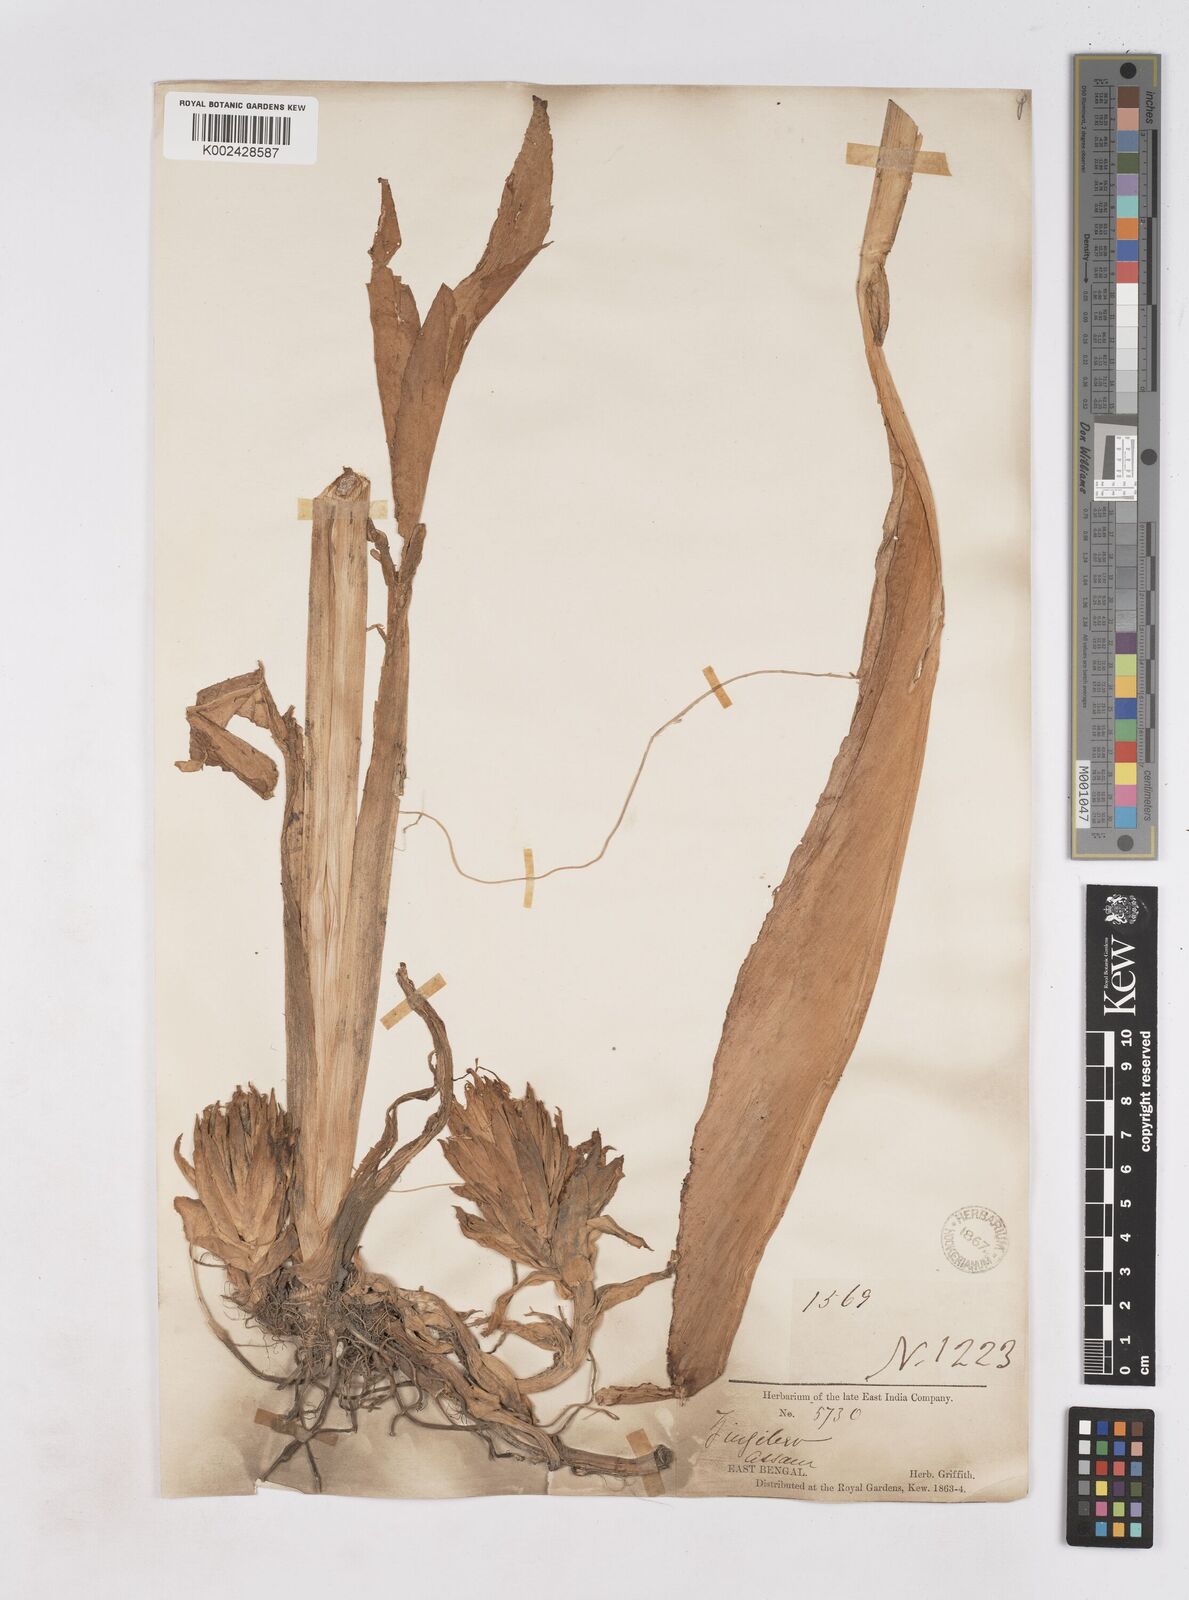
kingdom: Plantae
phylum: Tracheophyta
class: Liliopsida
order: Zingiberales
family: Zingiberaceae
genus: Zingiber
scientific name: Zingiber chrysanthum
